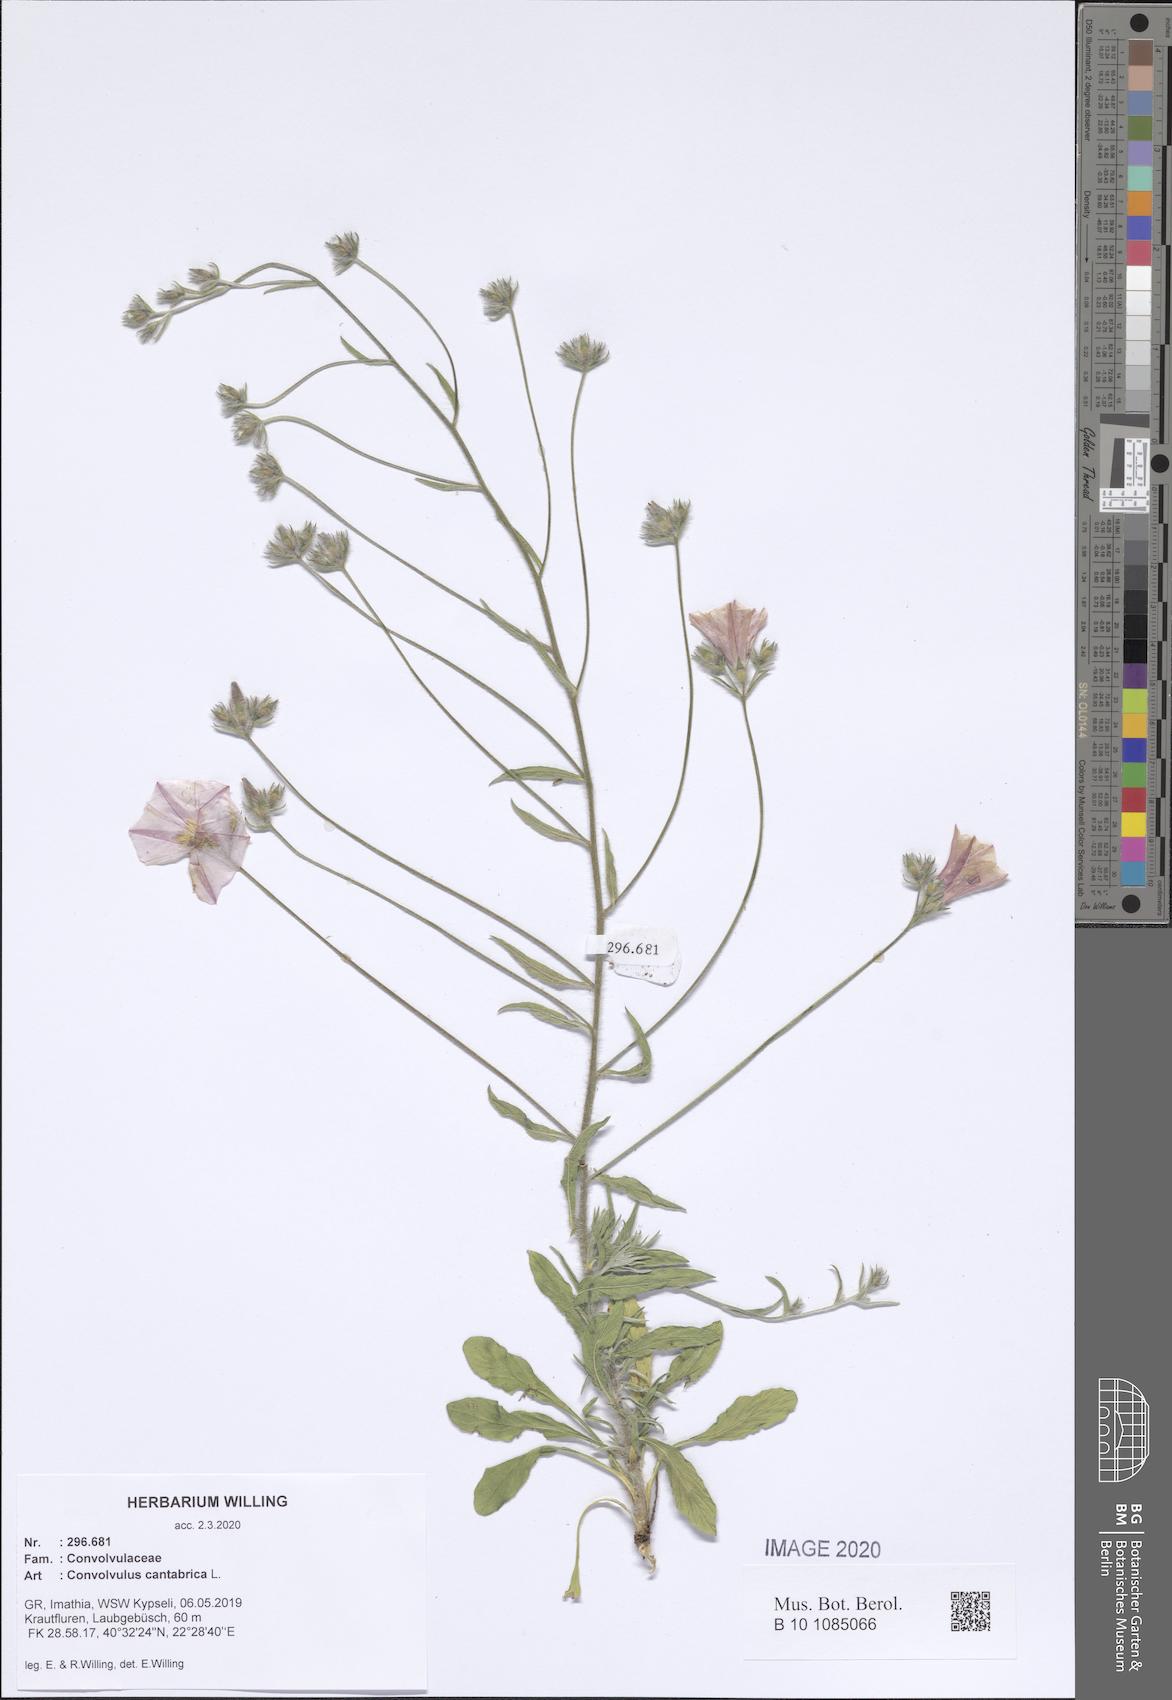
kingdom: Plantae
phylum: Tracheophyta
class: Magnoliopsida
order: Solanales
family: Convolvulaceae
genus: Convolvulus
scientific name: Convolvulus cantabrica
